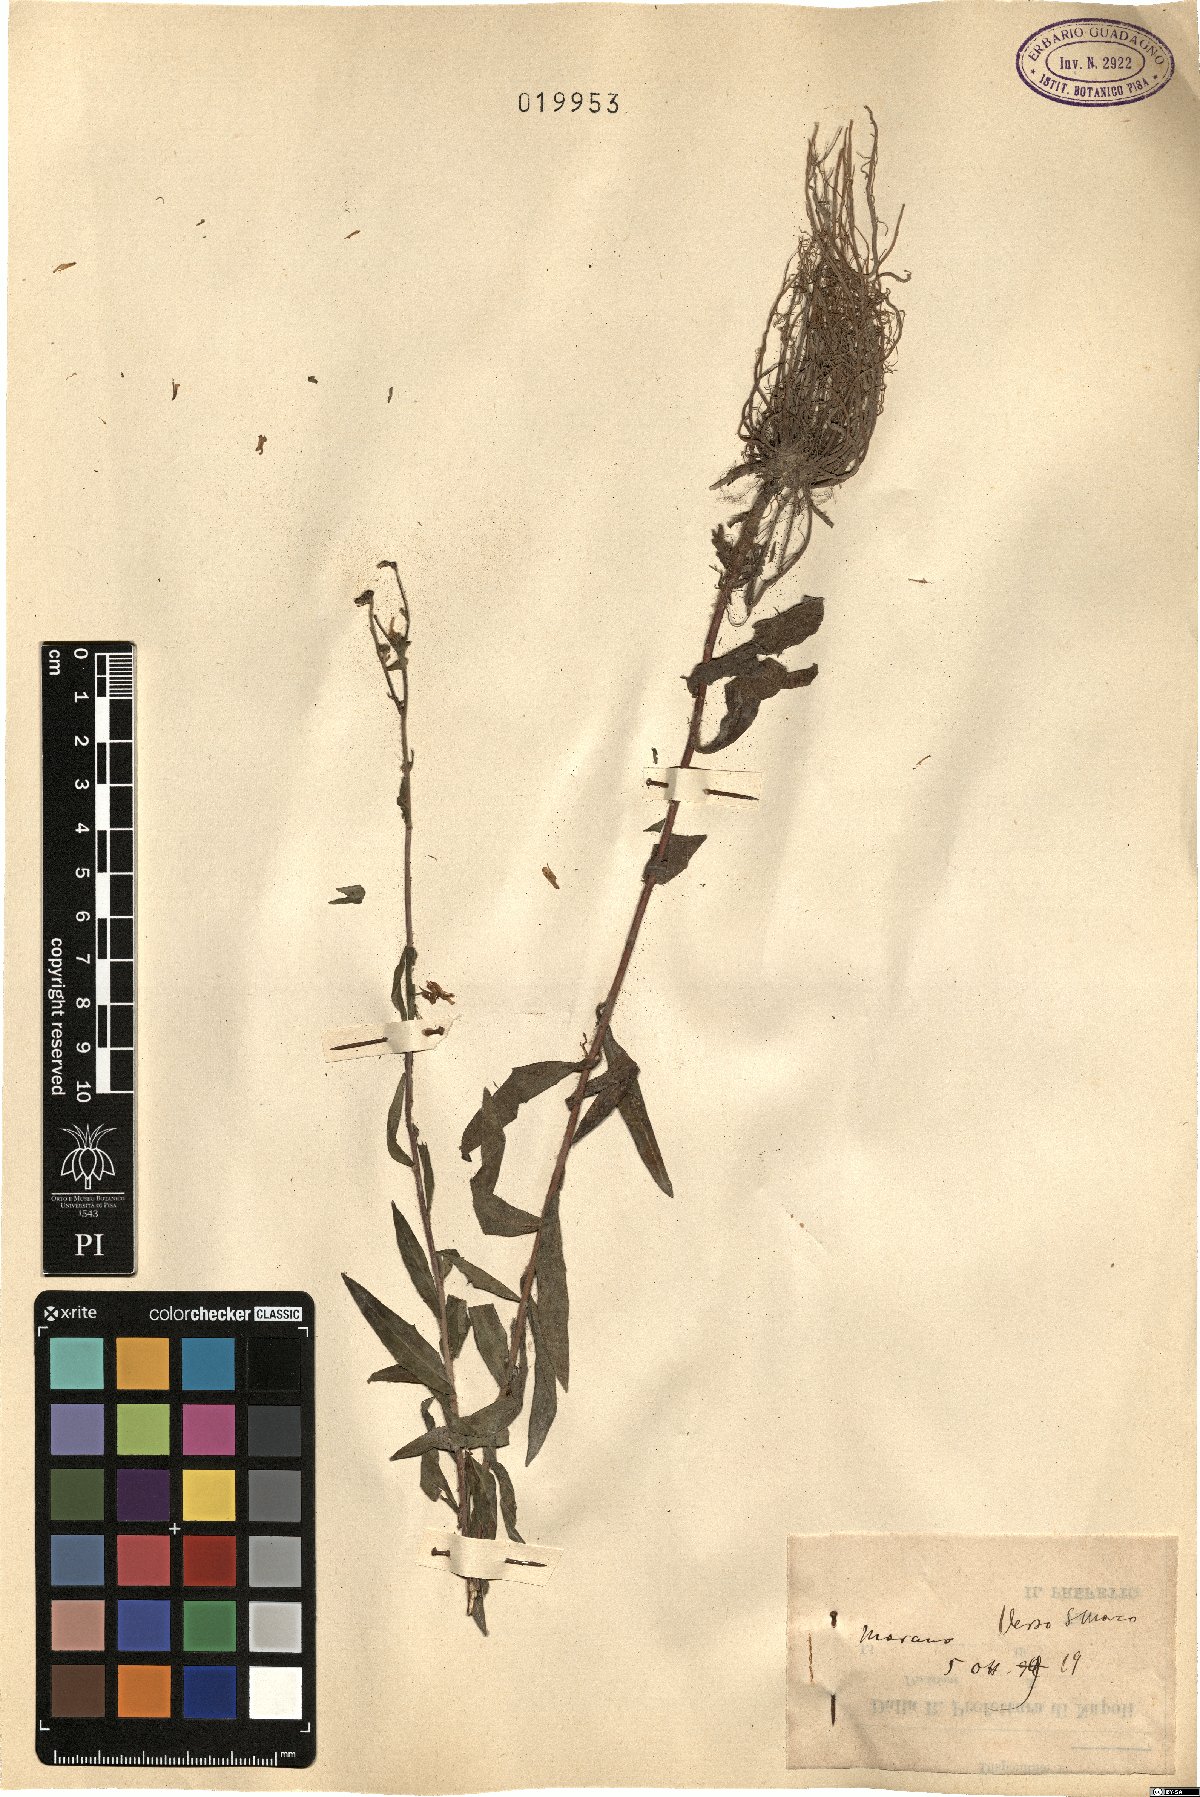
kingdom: Plantae
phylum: Tracheophyta
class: Magnoliopsida
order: Asterales
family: Asteraceae
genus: Hieracium
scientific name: Hieracium
